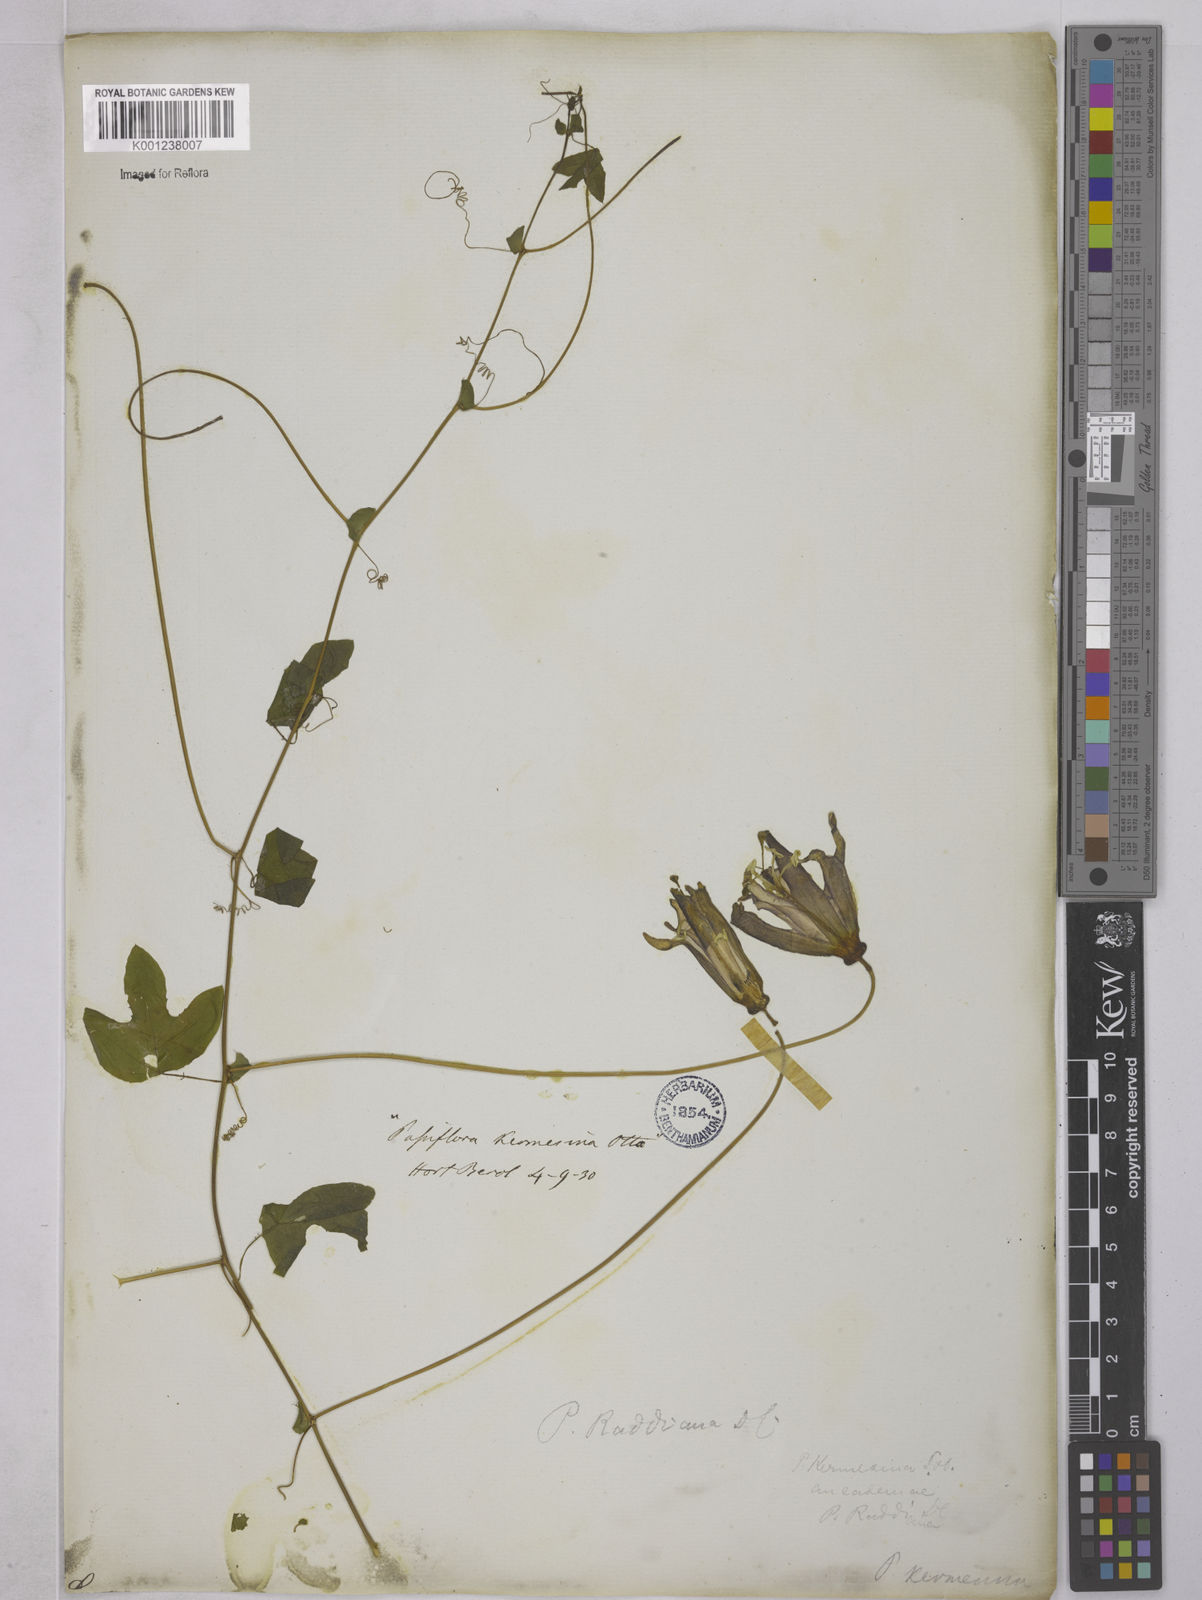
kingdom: Plantae
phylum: Tracheophyta
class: Magnoliopsida
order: Malpighiales
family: Passifloraceae
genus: Passiflora
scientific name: Passiflora kermesina
